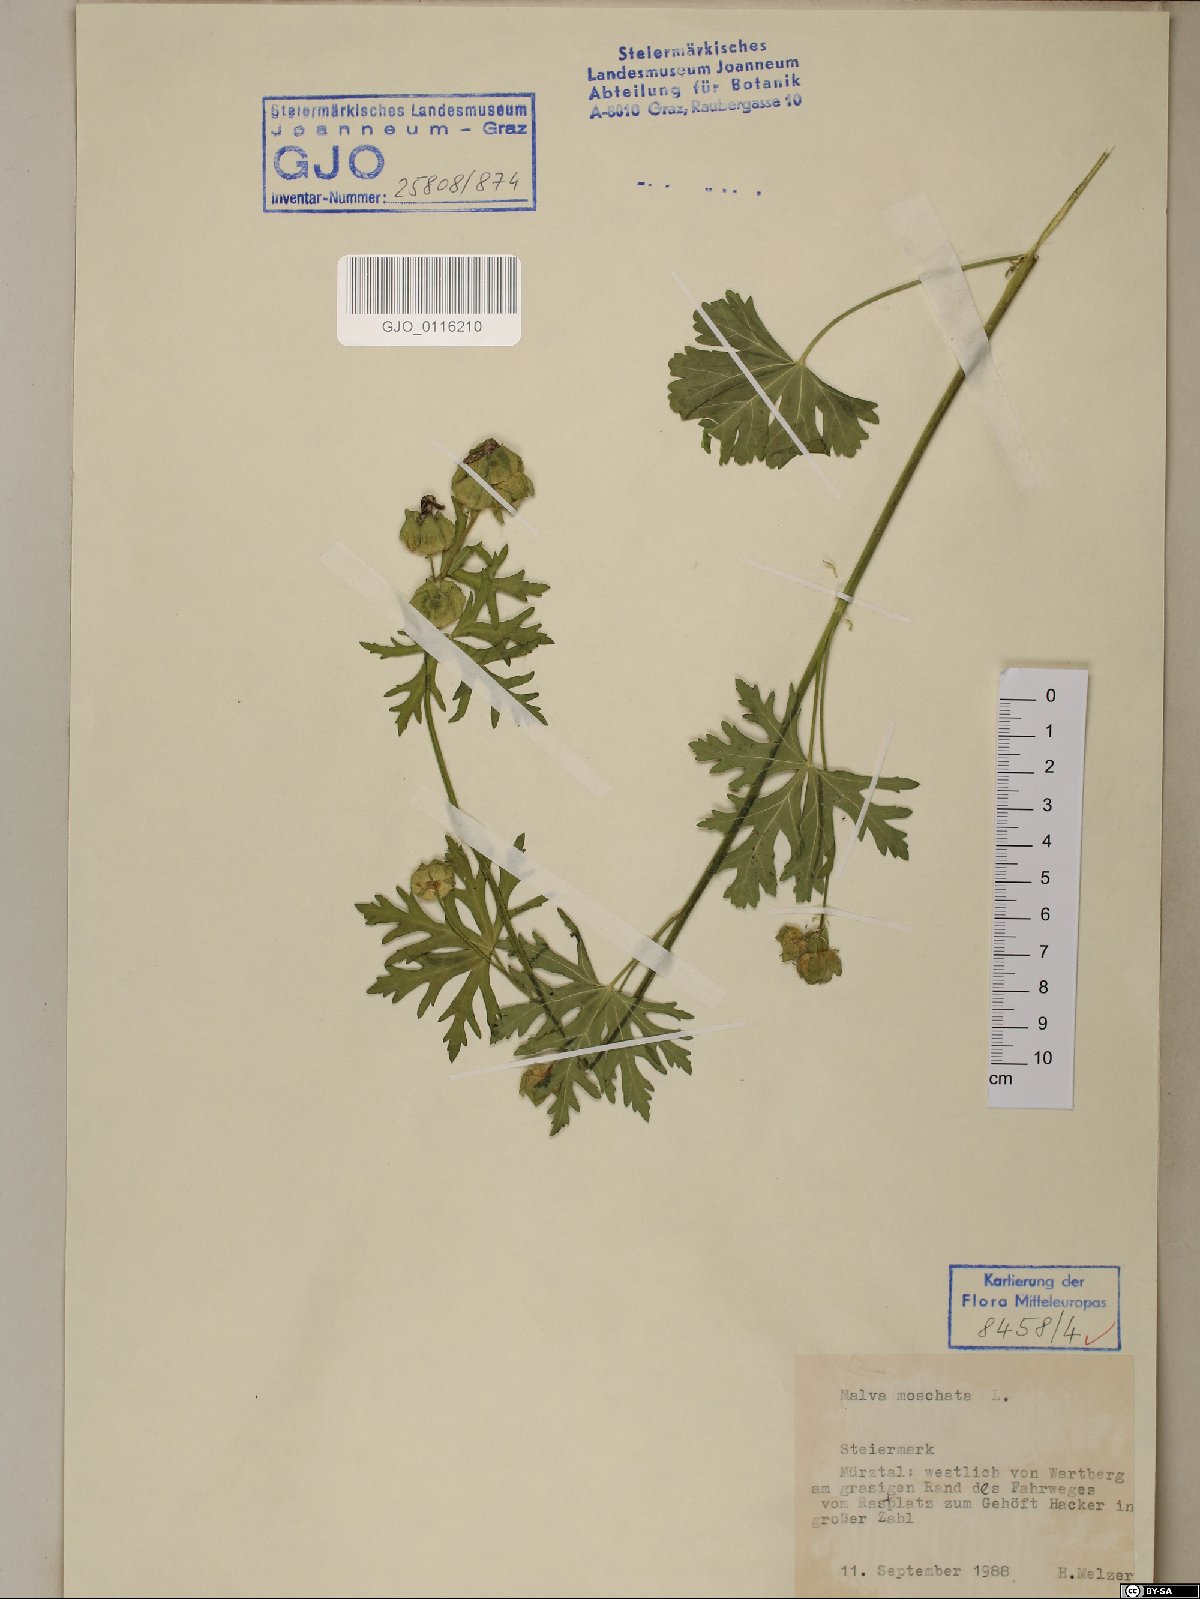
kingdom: Plantae
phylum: Tracheophyta
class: Magnoliopsida
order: Malvales
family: Malvaceae
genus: Malva
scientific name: Malva moschata
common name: Musk mallow
